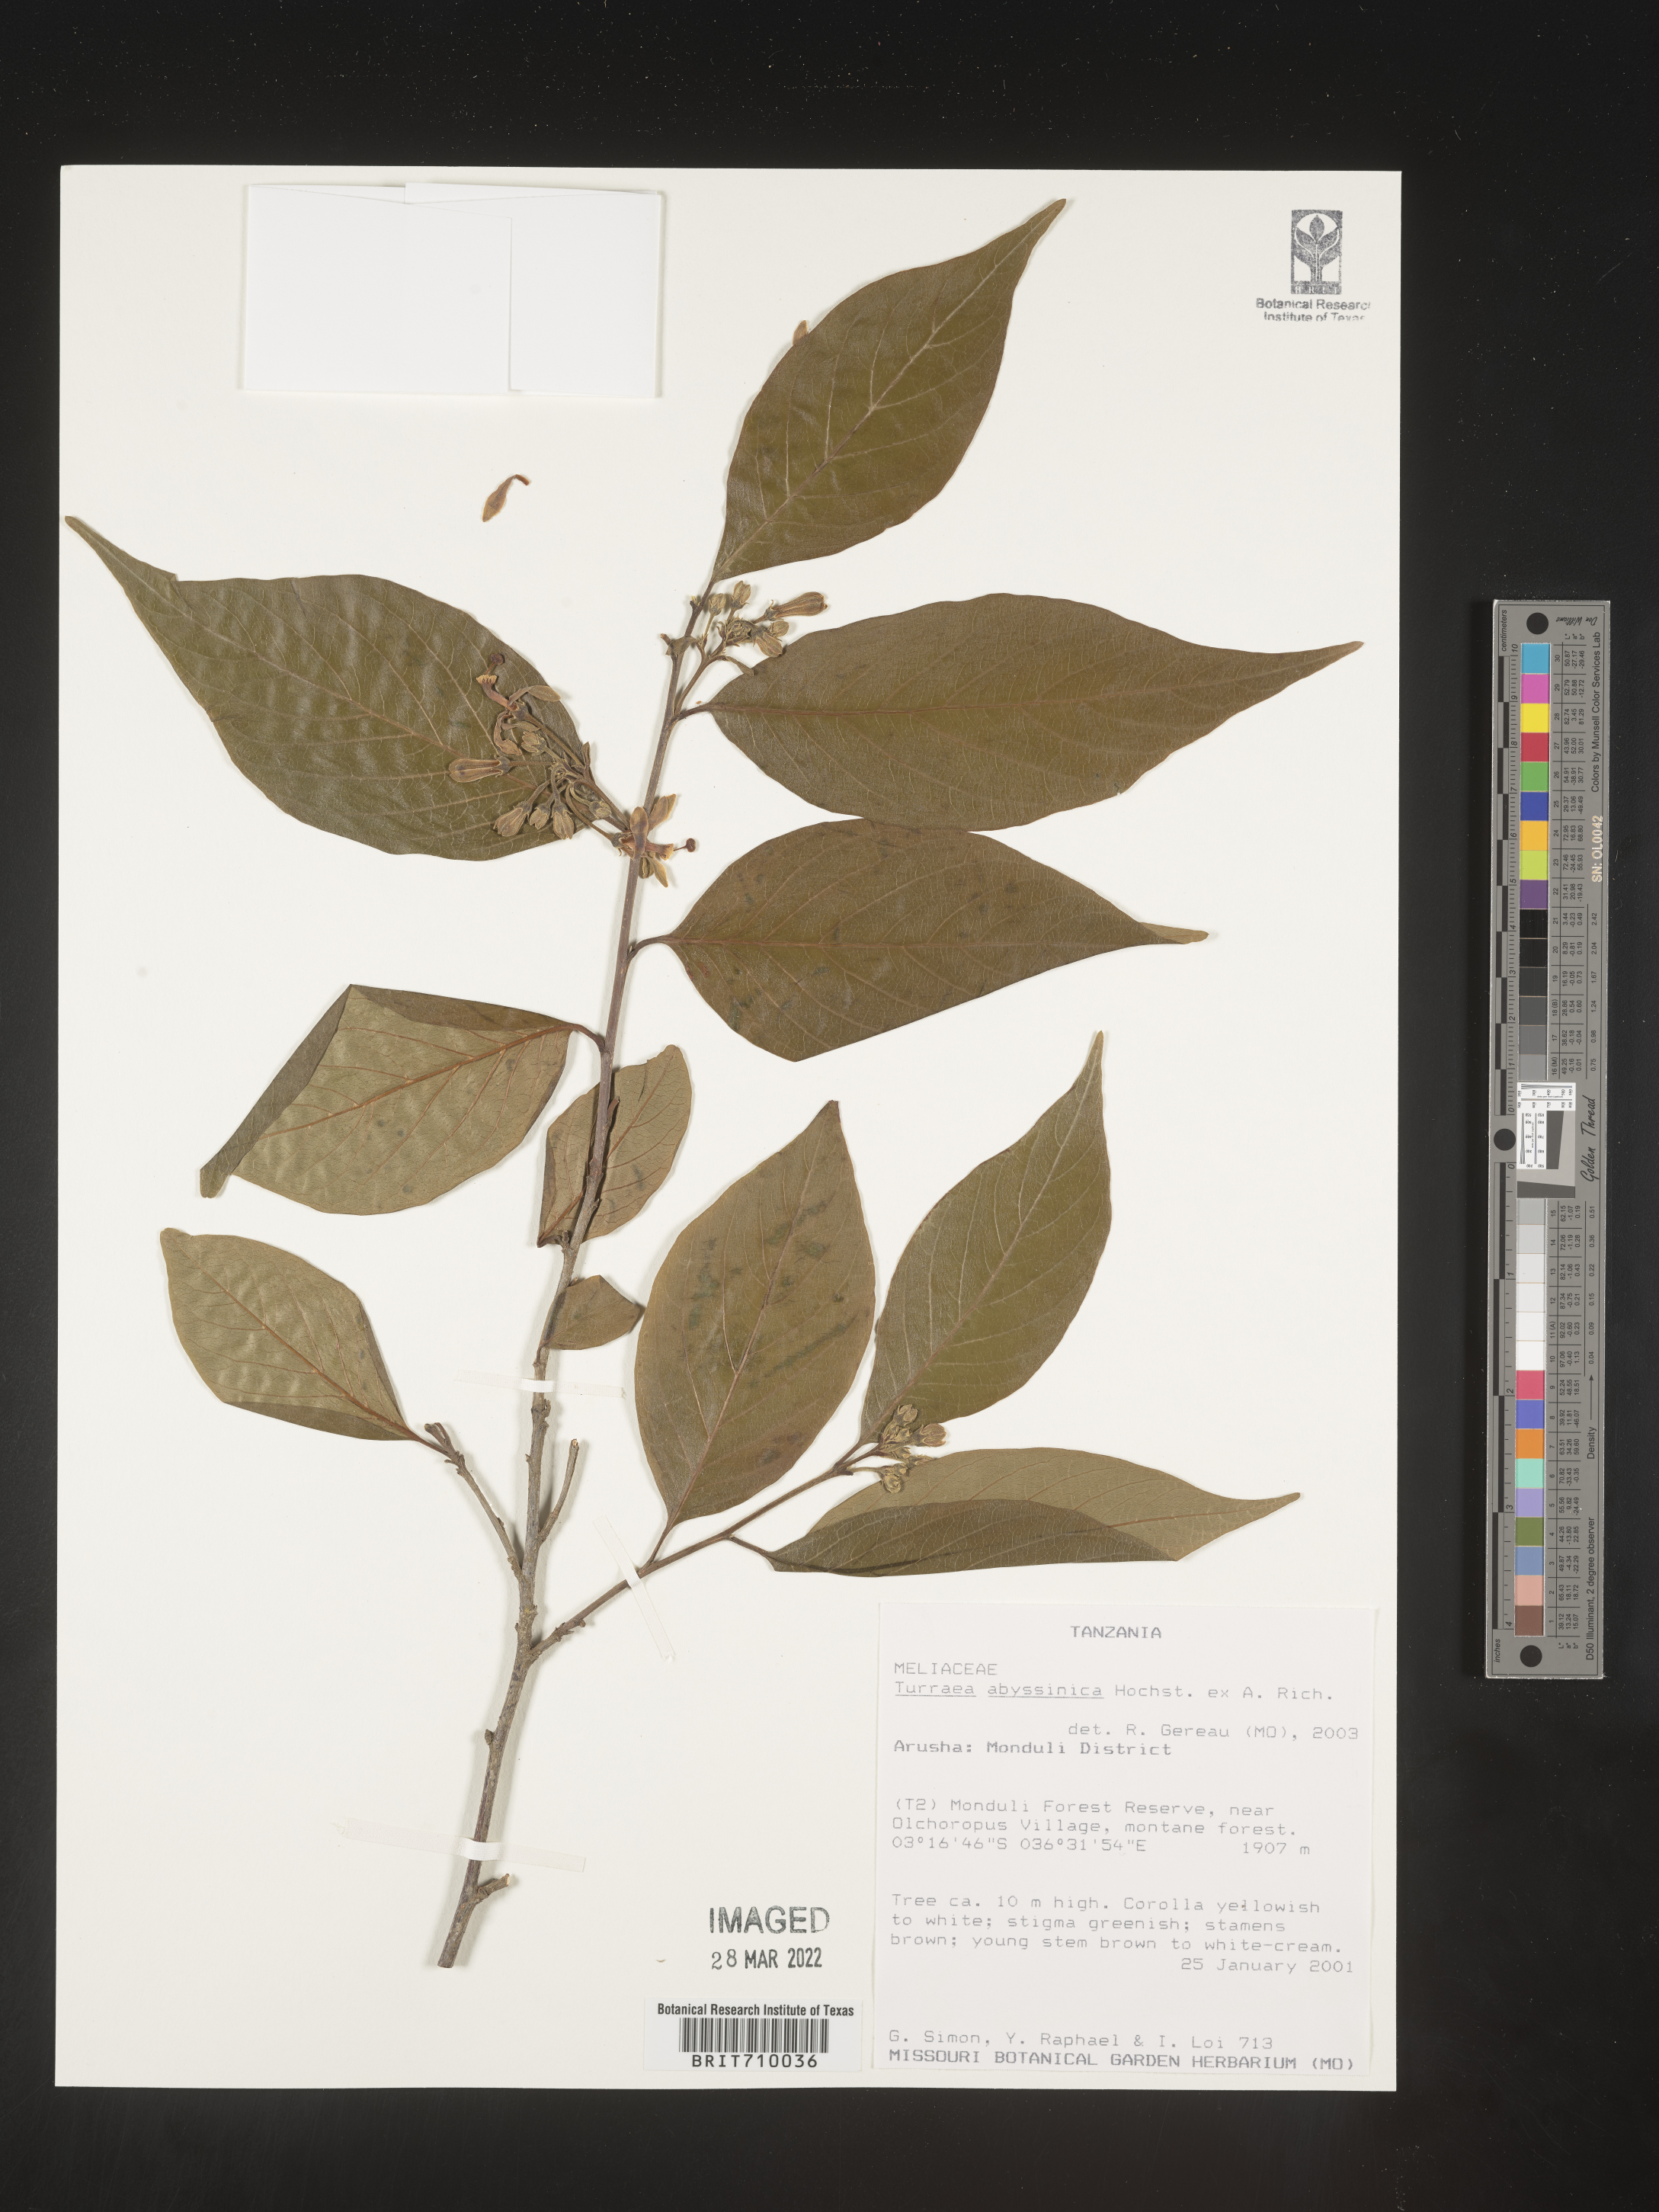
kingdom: Plantae
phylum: Tracheophyta
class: Magnoliopsida
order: Sapindales
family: Meliaceae
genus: Turraea
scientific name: Turraea
